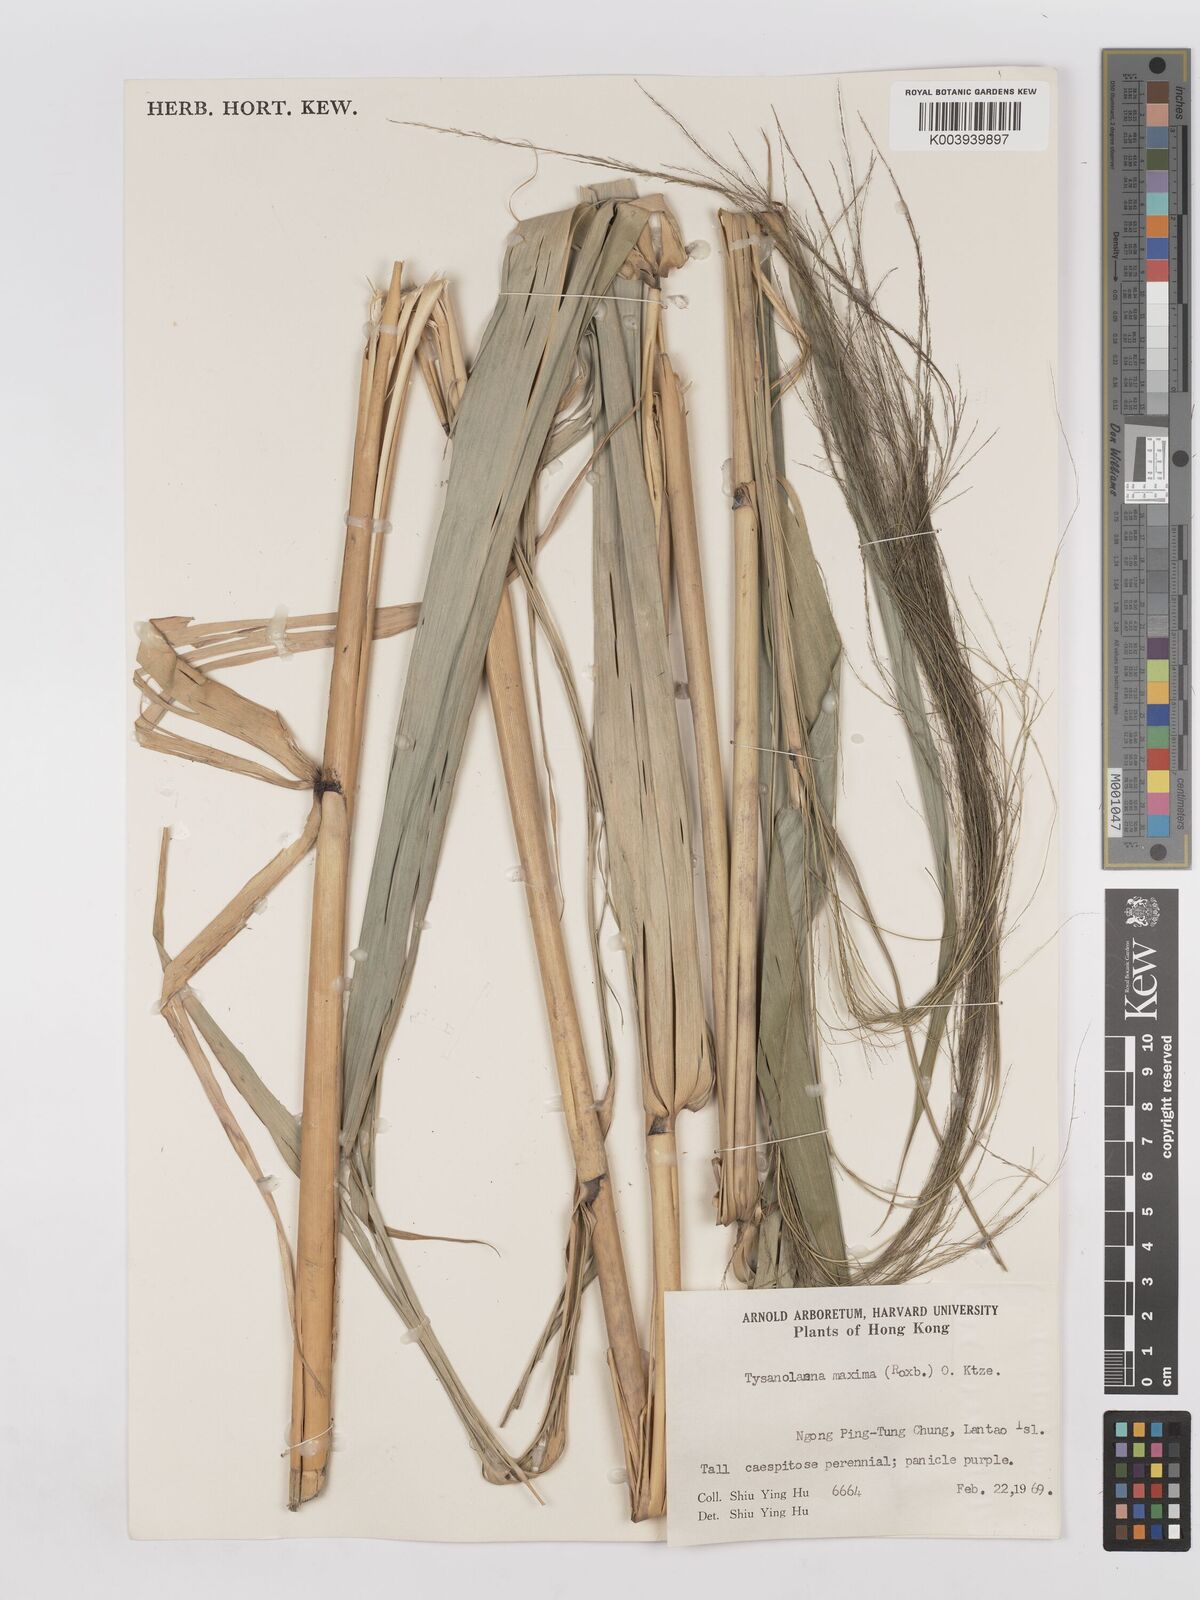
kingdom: Plantae
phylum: Tracheophyta
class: Liliopsida
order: Poales
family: Poaceae
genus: Thysanolaena
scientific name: Thysanolaena latifolia
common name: Tiger grass
